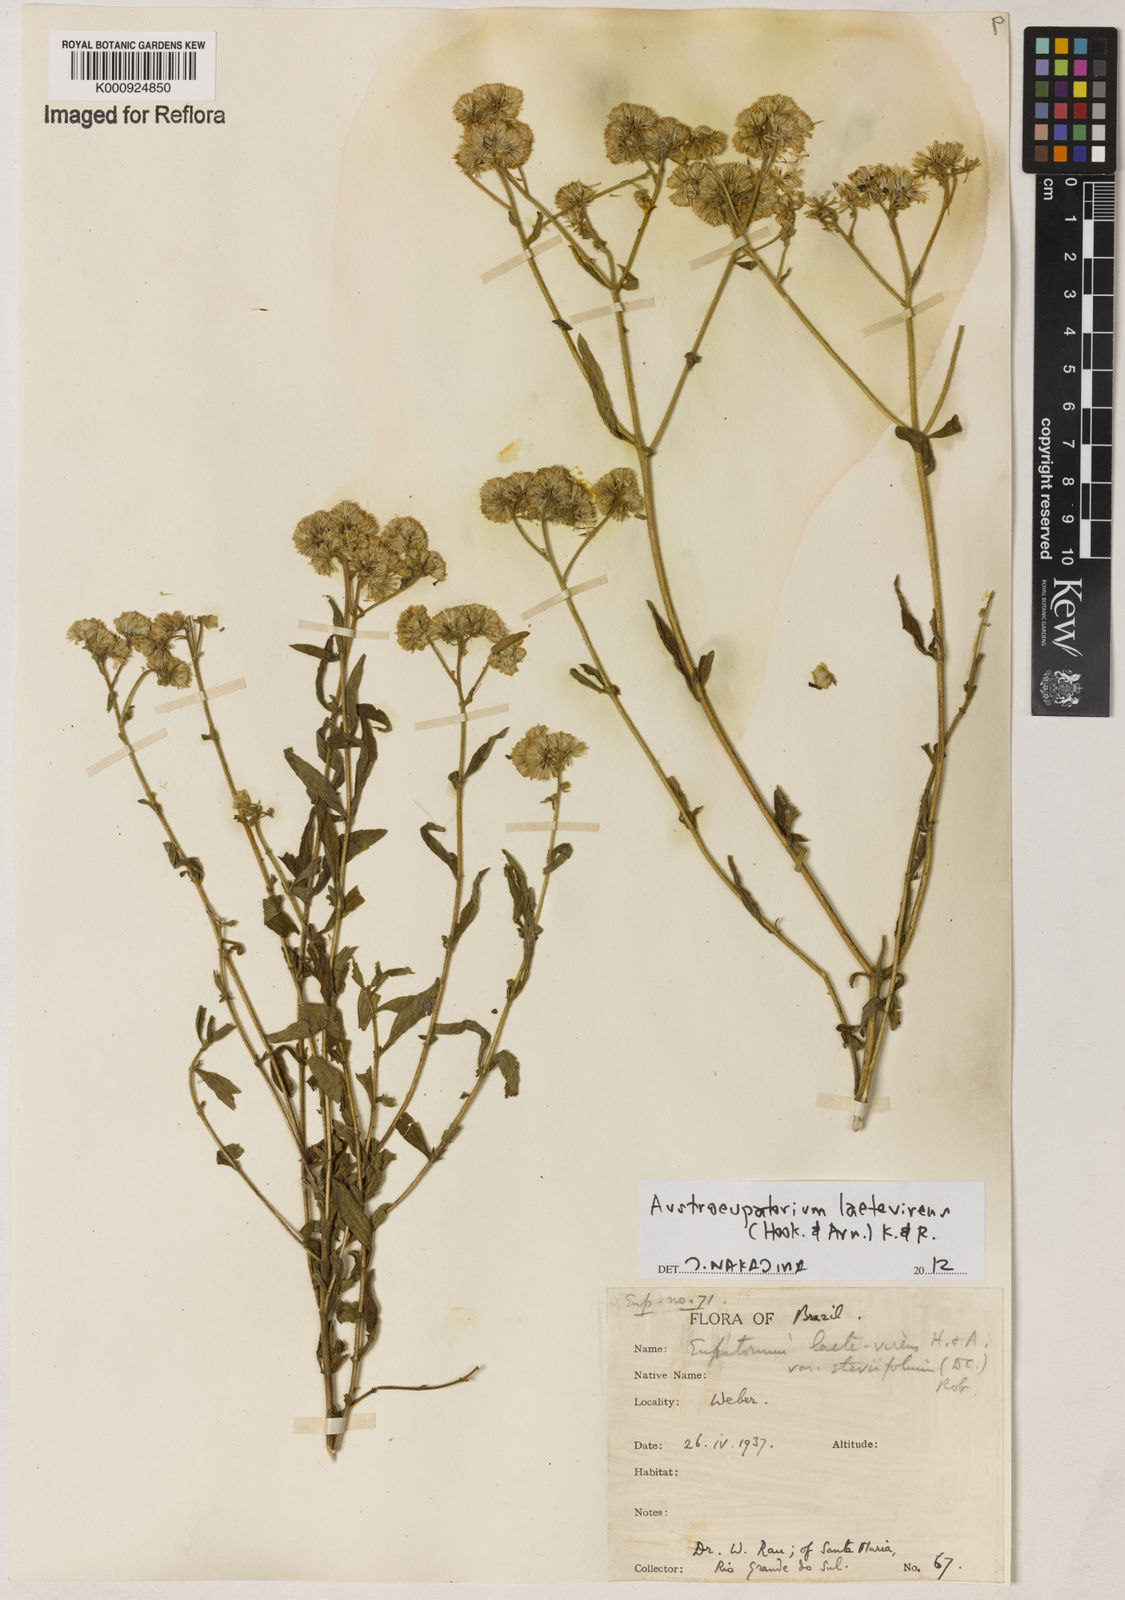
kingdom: Plantae
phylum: Tracheophyta
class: Magnoliopsida
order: Asterales
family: Asteraceae
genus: Austroeupatorium
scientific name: Austroeupatorium laetevirens
